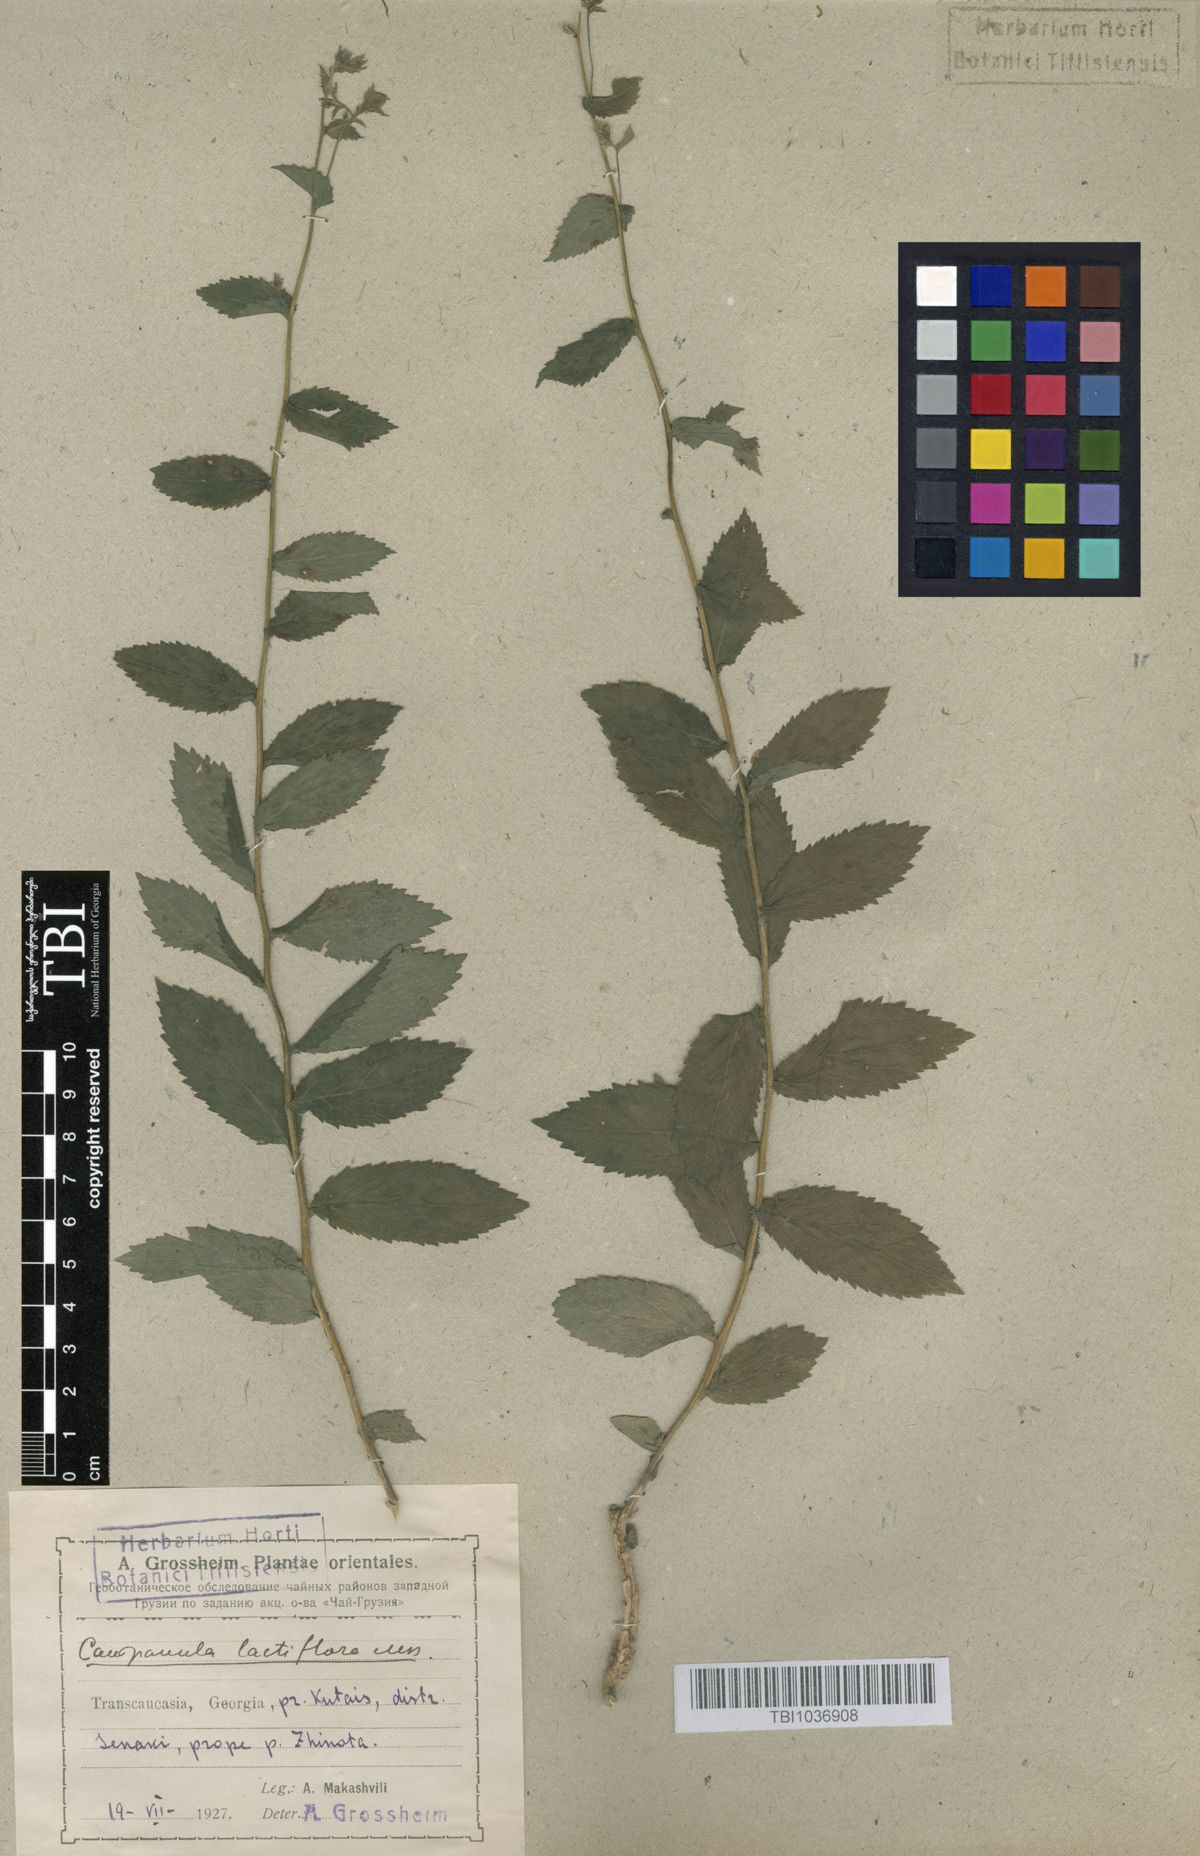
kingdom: Plantae
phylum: Tracheophyta
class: Magnoliopsida
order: Asterales
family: Campanulaceae
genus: Campanula
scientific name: Campanula lactiflora
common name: Milky bellflower
